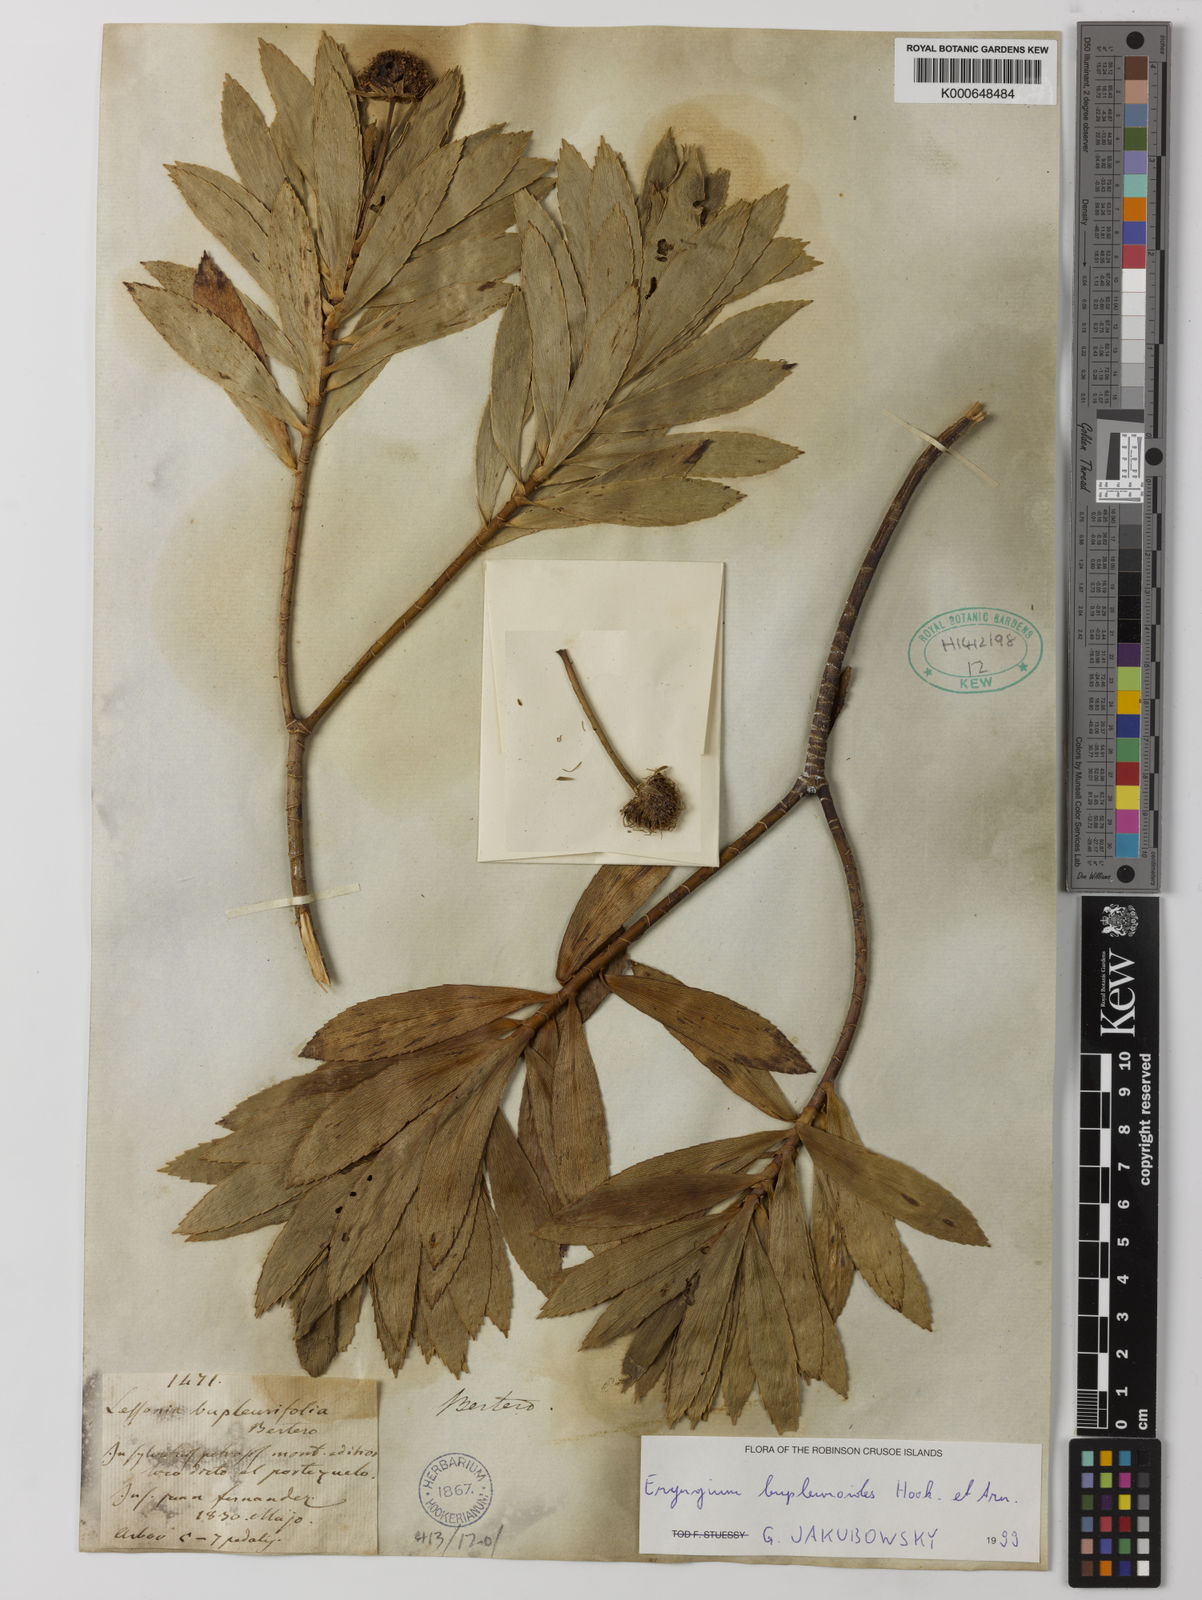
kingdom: Plantae
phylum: Tracheophyta
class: Magnoliopsida
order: Apiales
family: Apiaceae
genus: Eryngium
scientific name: Eryngium bupleuroides
